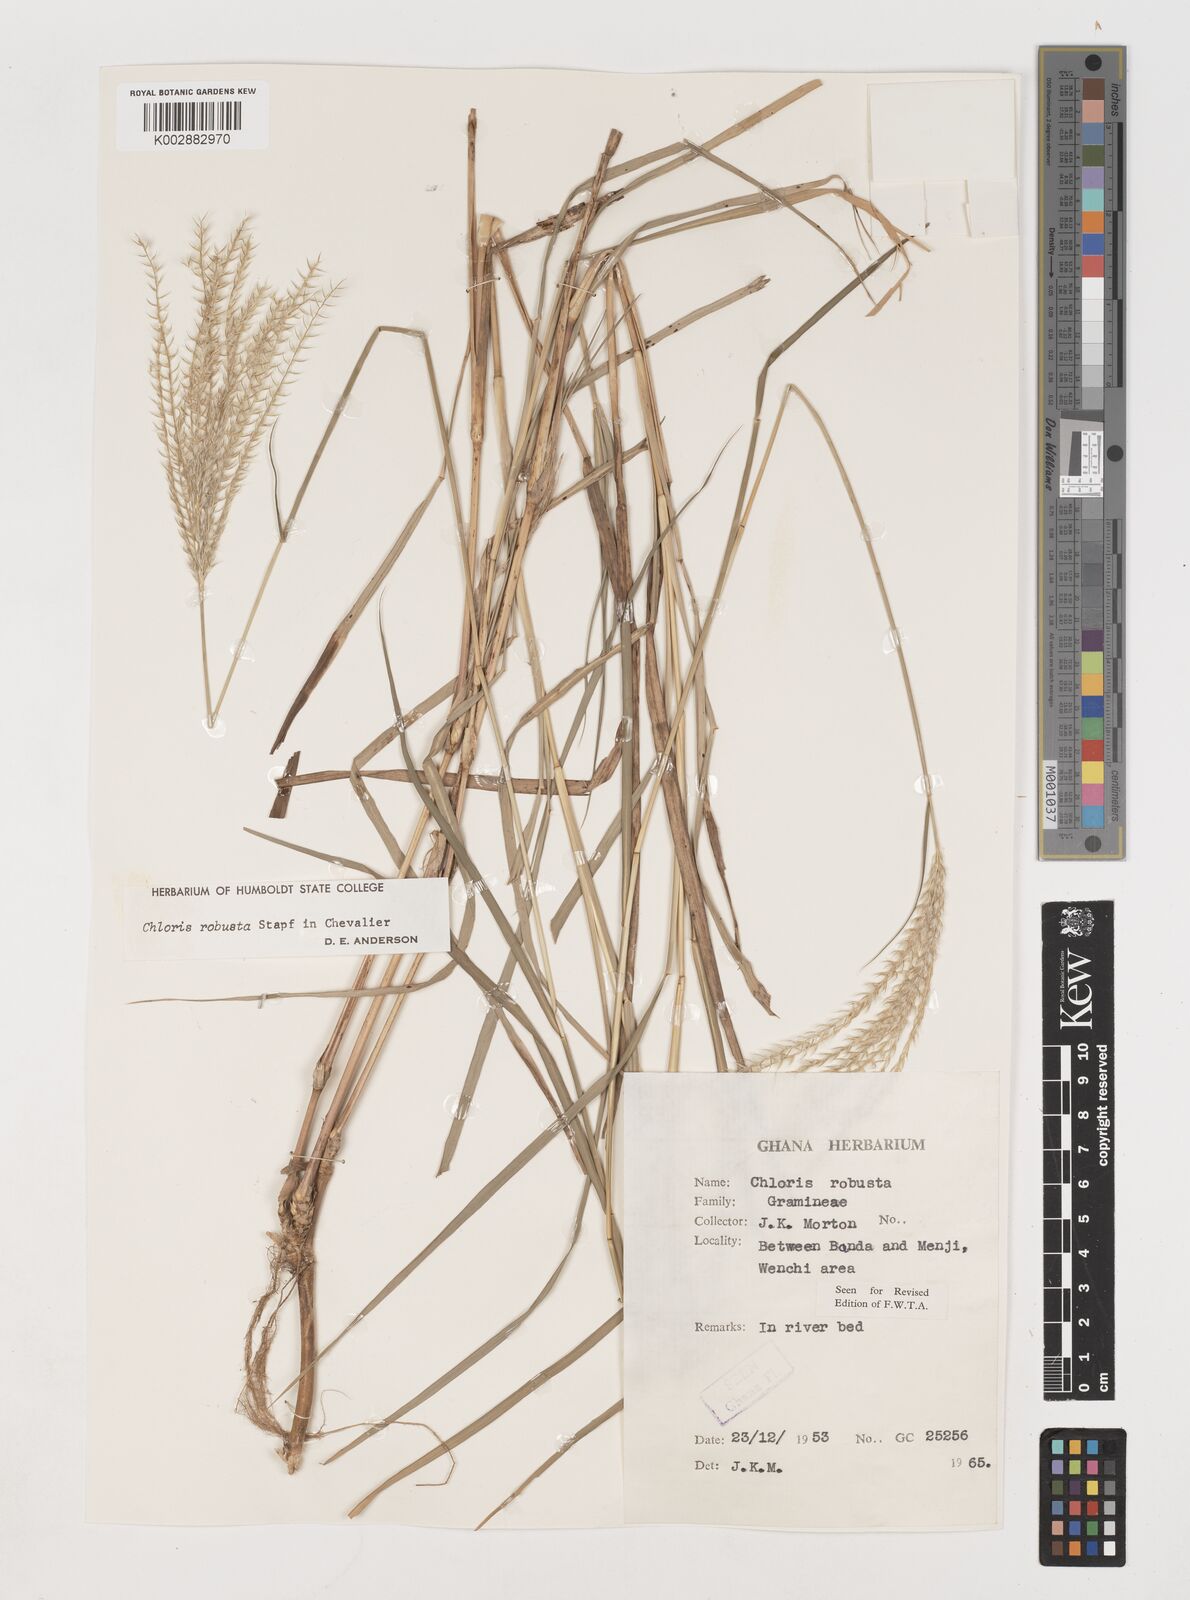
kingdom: Plantae
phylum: Tracheophyta
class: Liliopsida
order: Poales
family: Poaceae
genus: Chloris
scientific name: Chloris robusta
